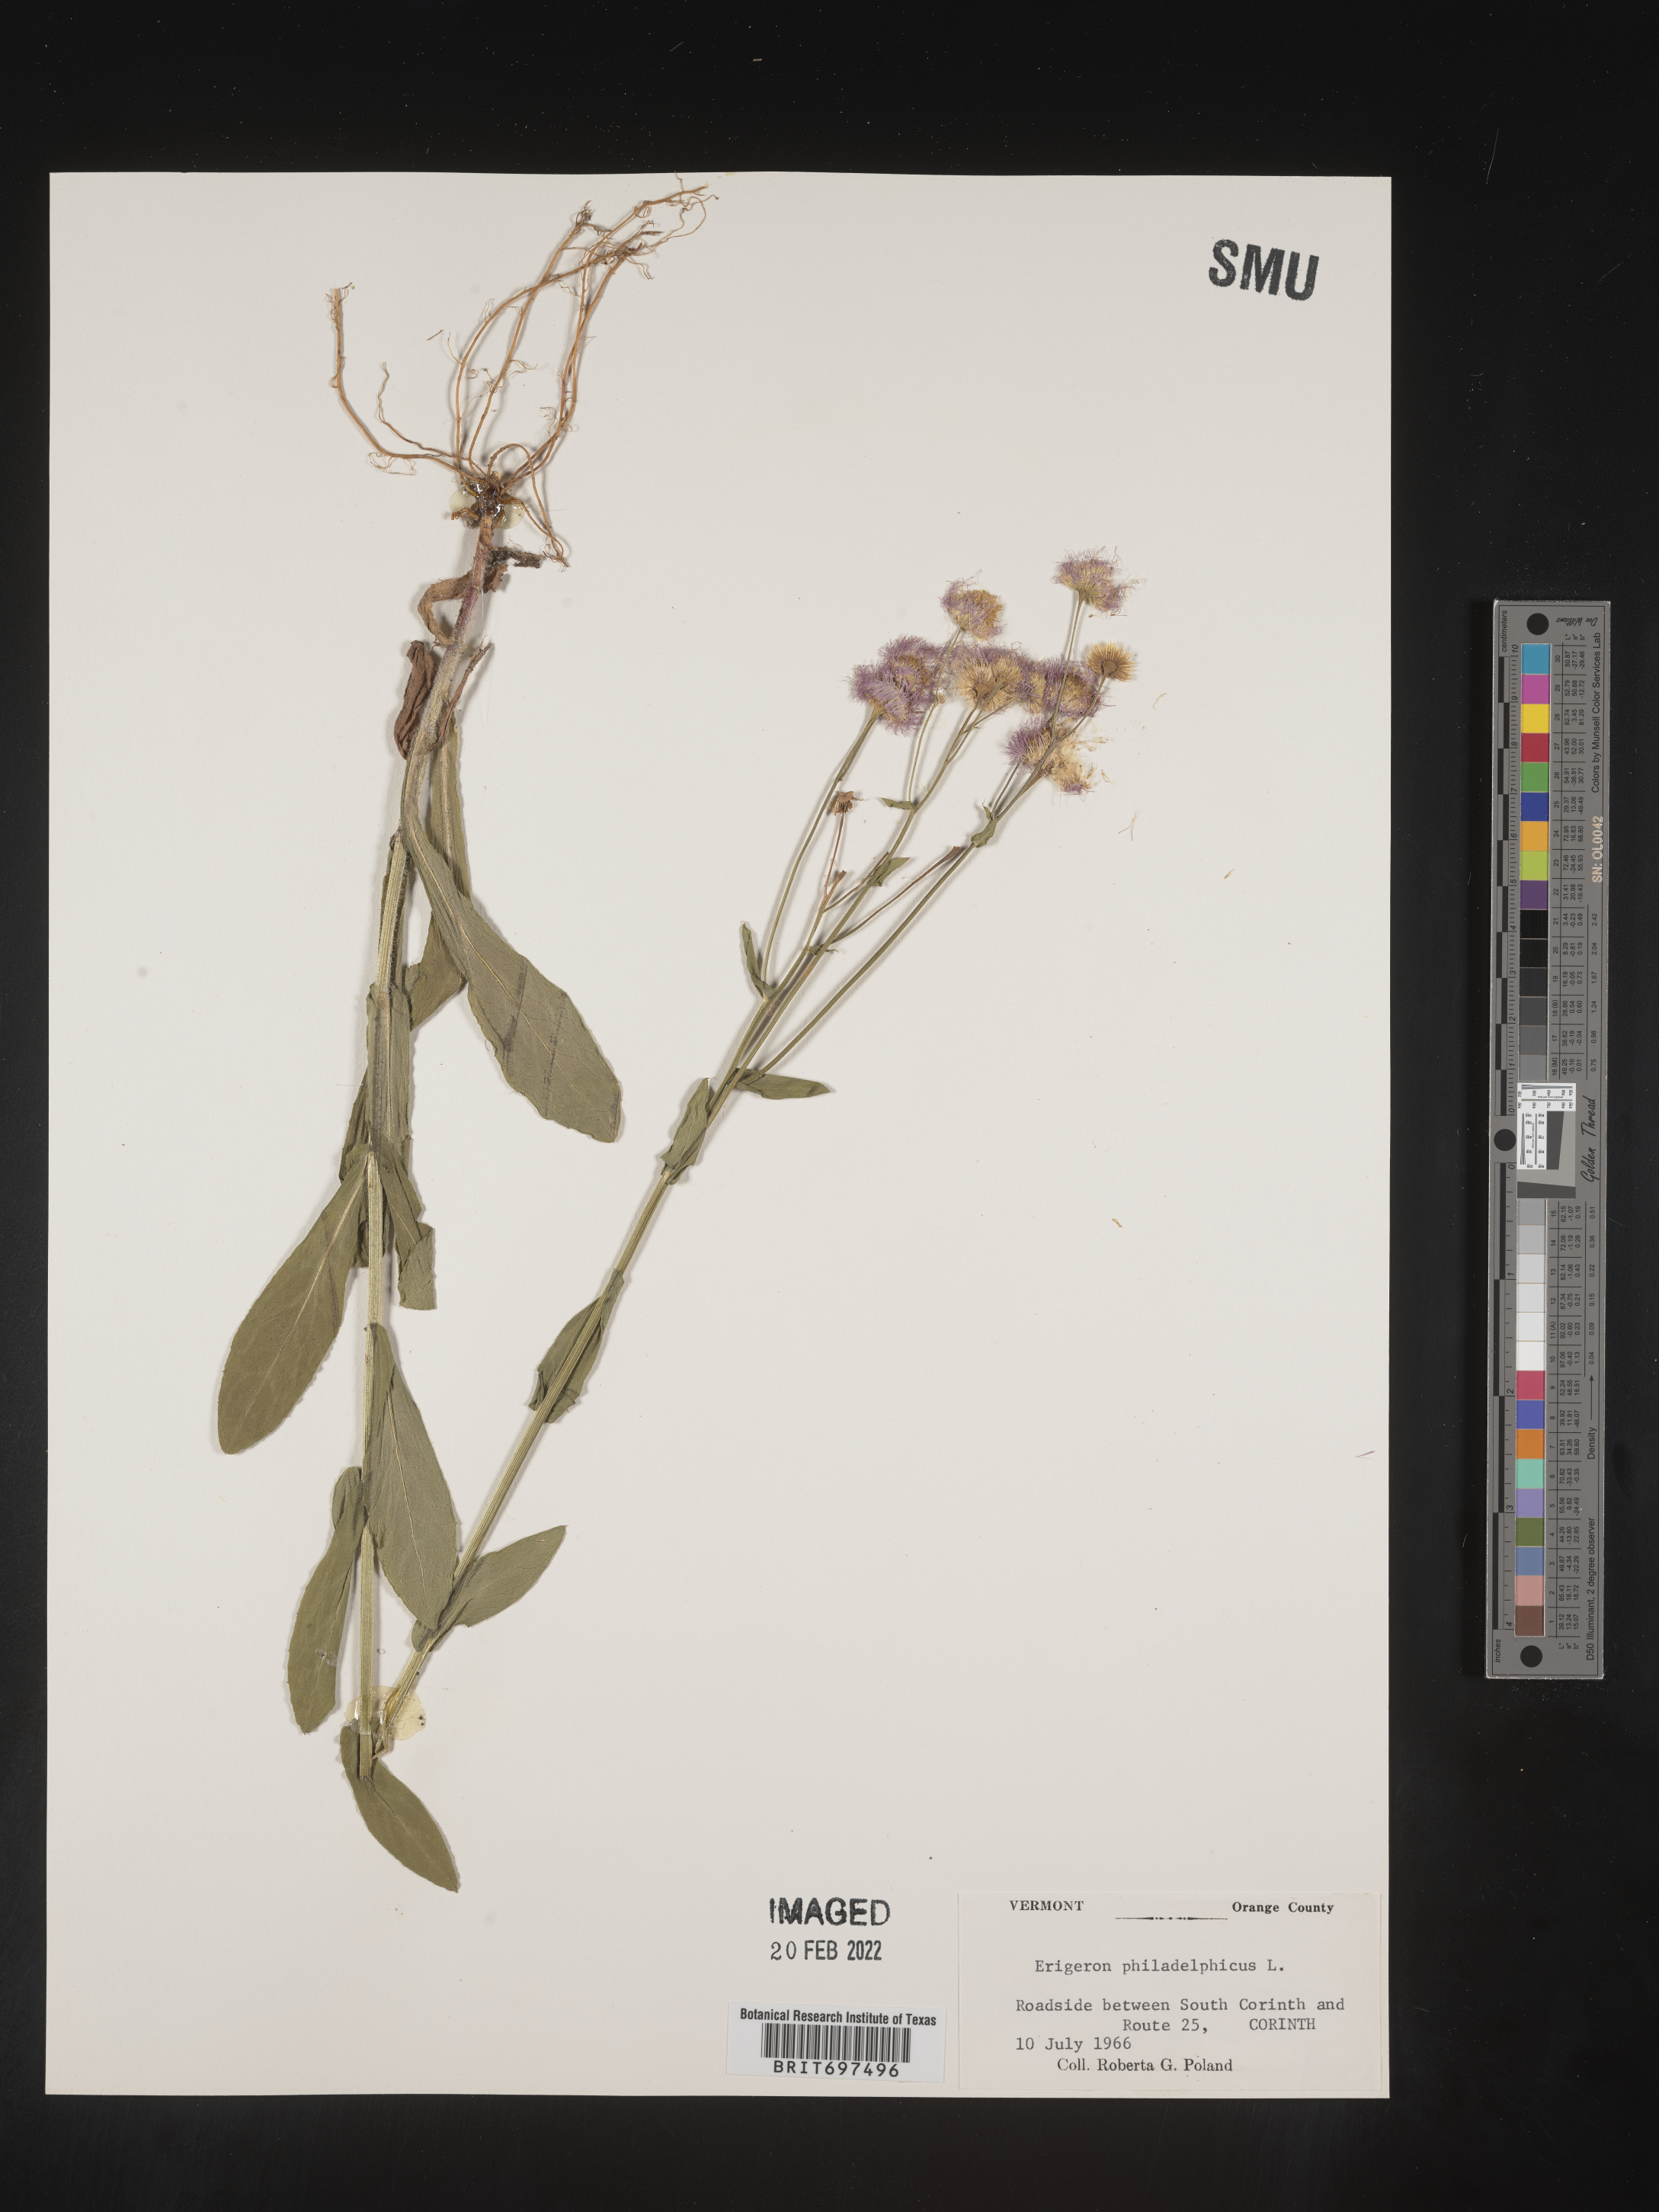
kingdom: Plantae
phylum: Tracheophyta
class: Magnoliopsida
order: Asterales
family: Asteraceae
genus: Erigeron
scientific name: Erigeron philadelphicus
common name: Robin's-plantain
